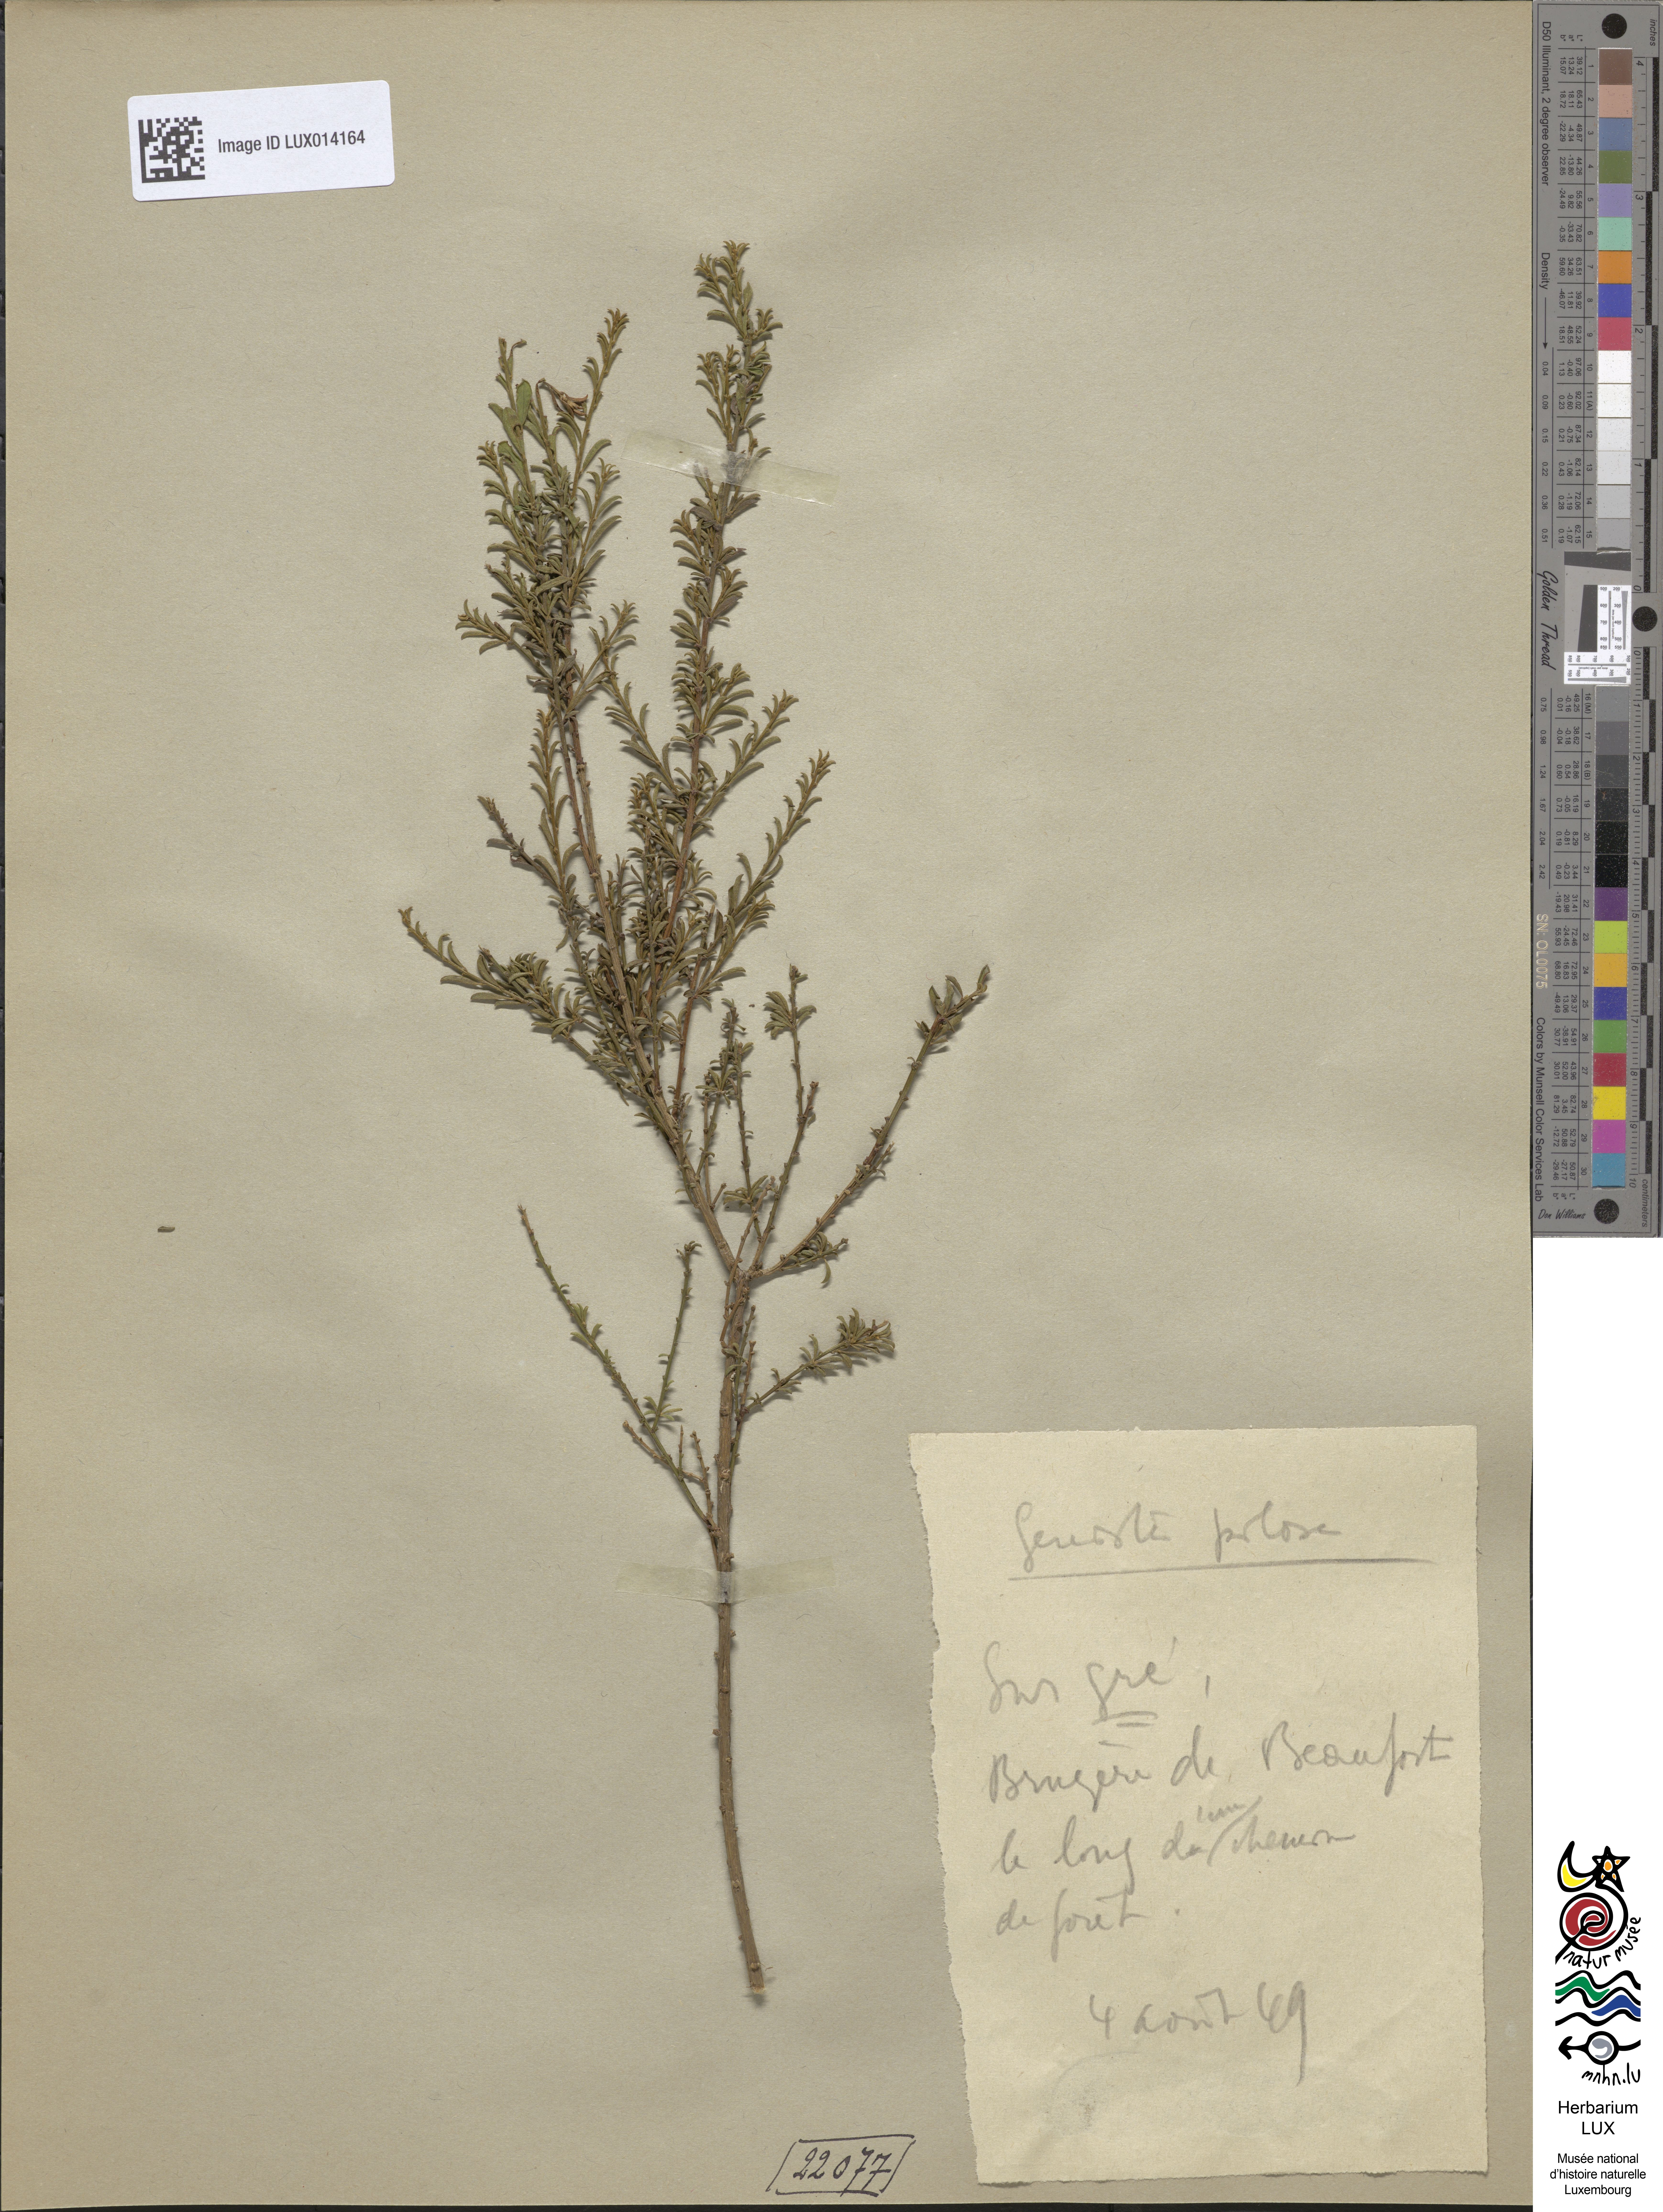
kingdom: Plantae
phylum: Tracheophyta
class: Magnoliopsida
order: Fabales
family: Fabaceae
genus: Genista
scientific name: Genista pilosa
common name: Hairy greenweed
